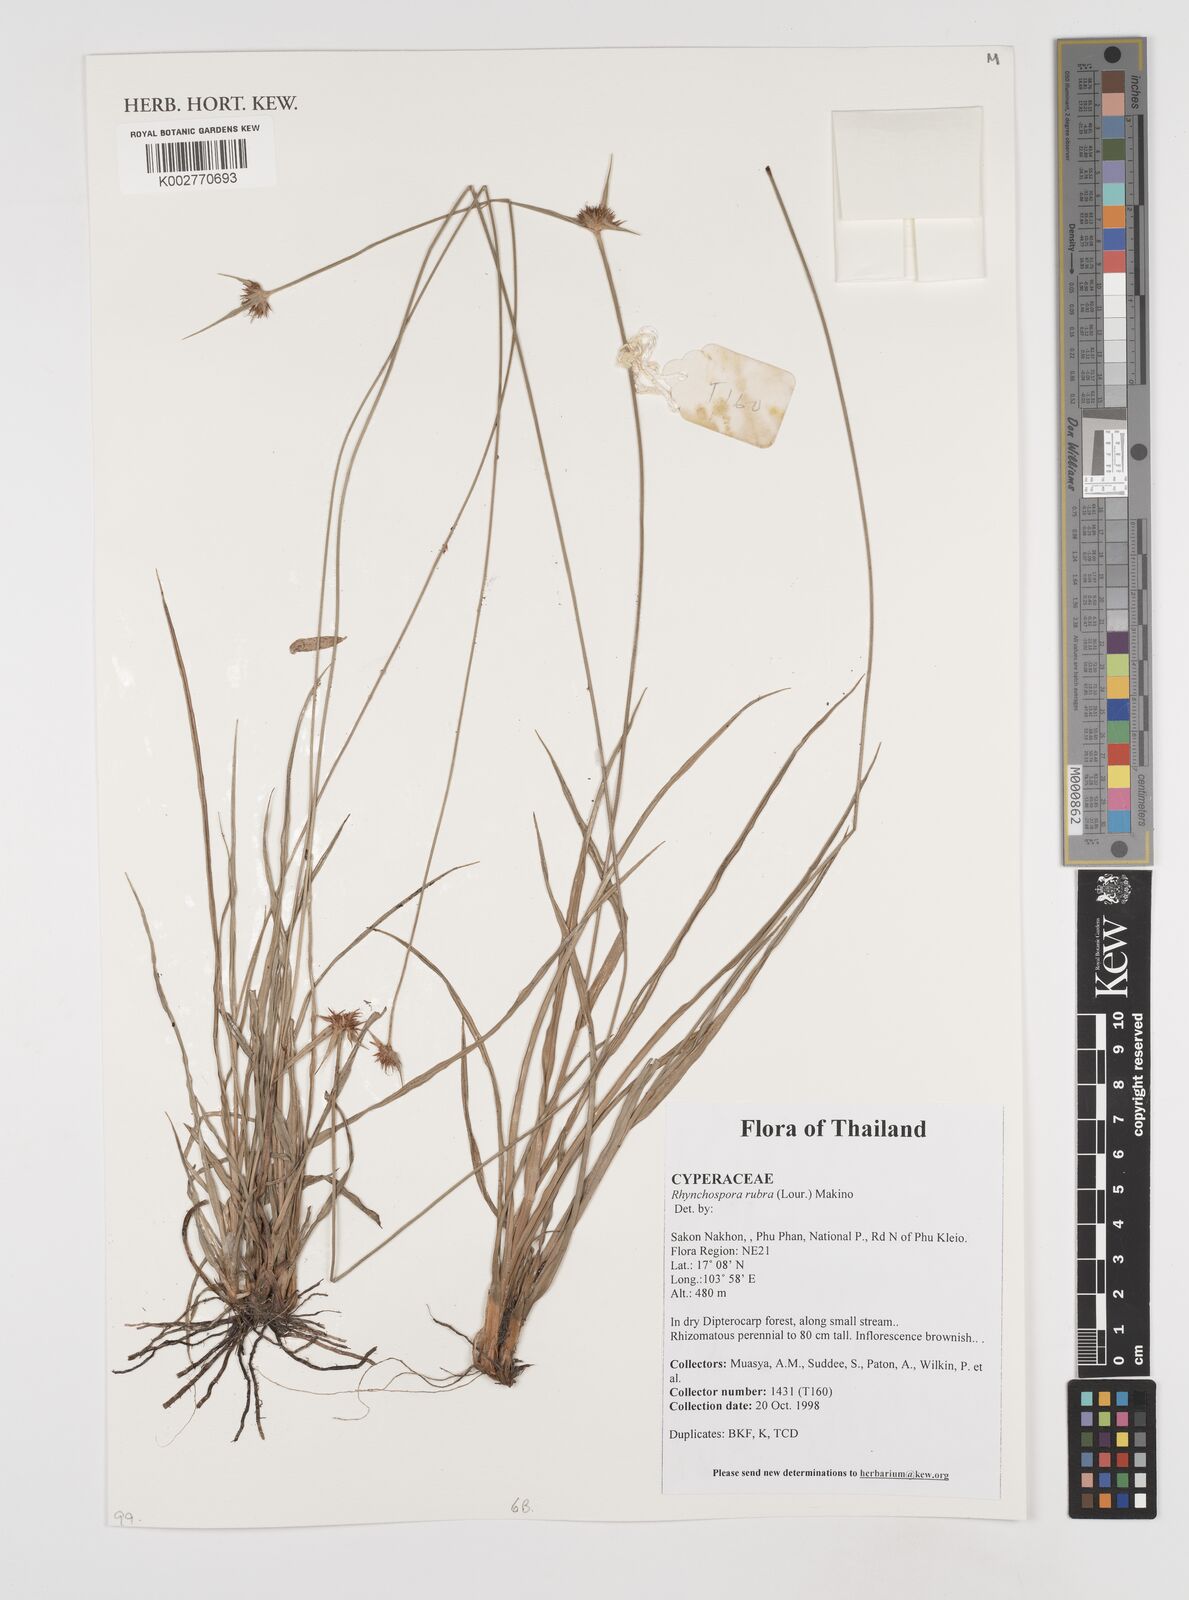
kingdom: Plantae
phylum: Tracheophyta
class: Liliopsida
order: Poales
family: Cyperaceae
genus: Rhynchospora
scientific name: Rhynchospora rubra
